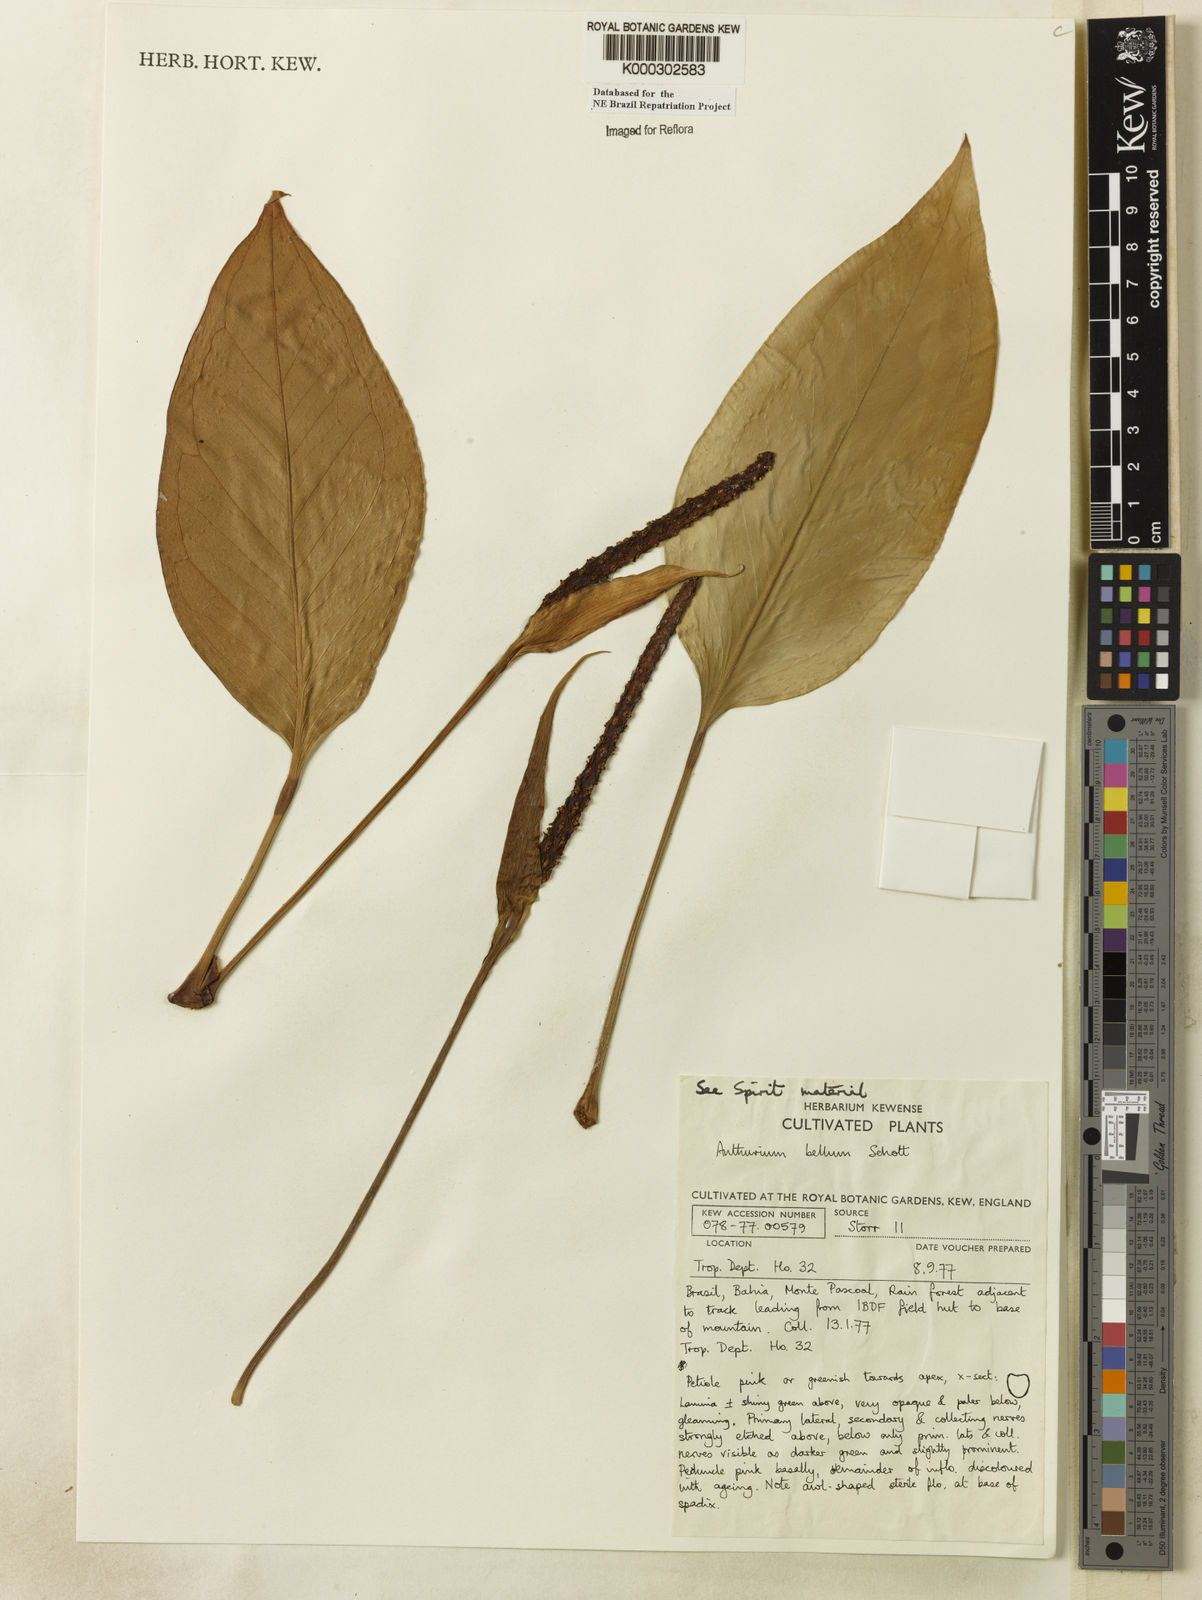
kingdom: Plantae
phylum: Tracheophyta
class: Liliopsida
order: Alismatales
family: Araceae
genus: Anthurium
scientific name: Anthurium bellum
